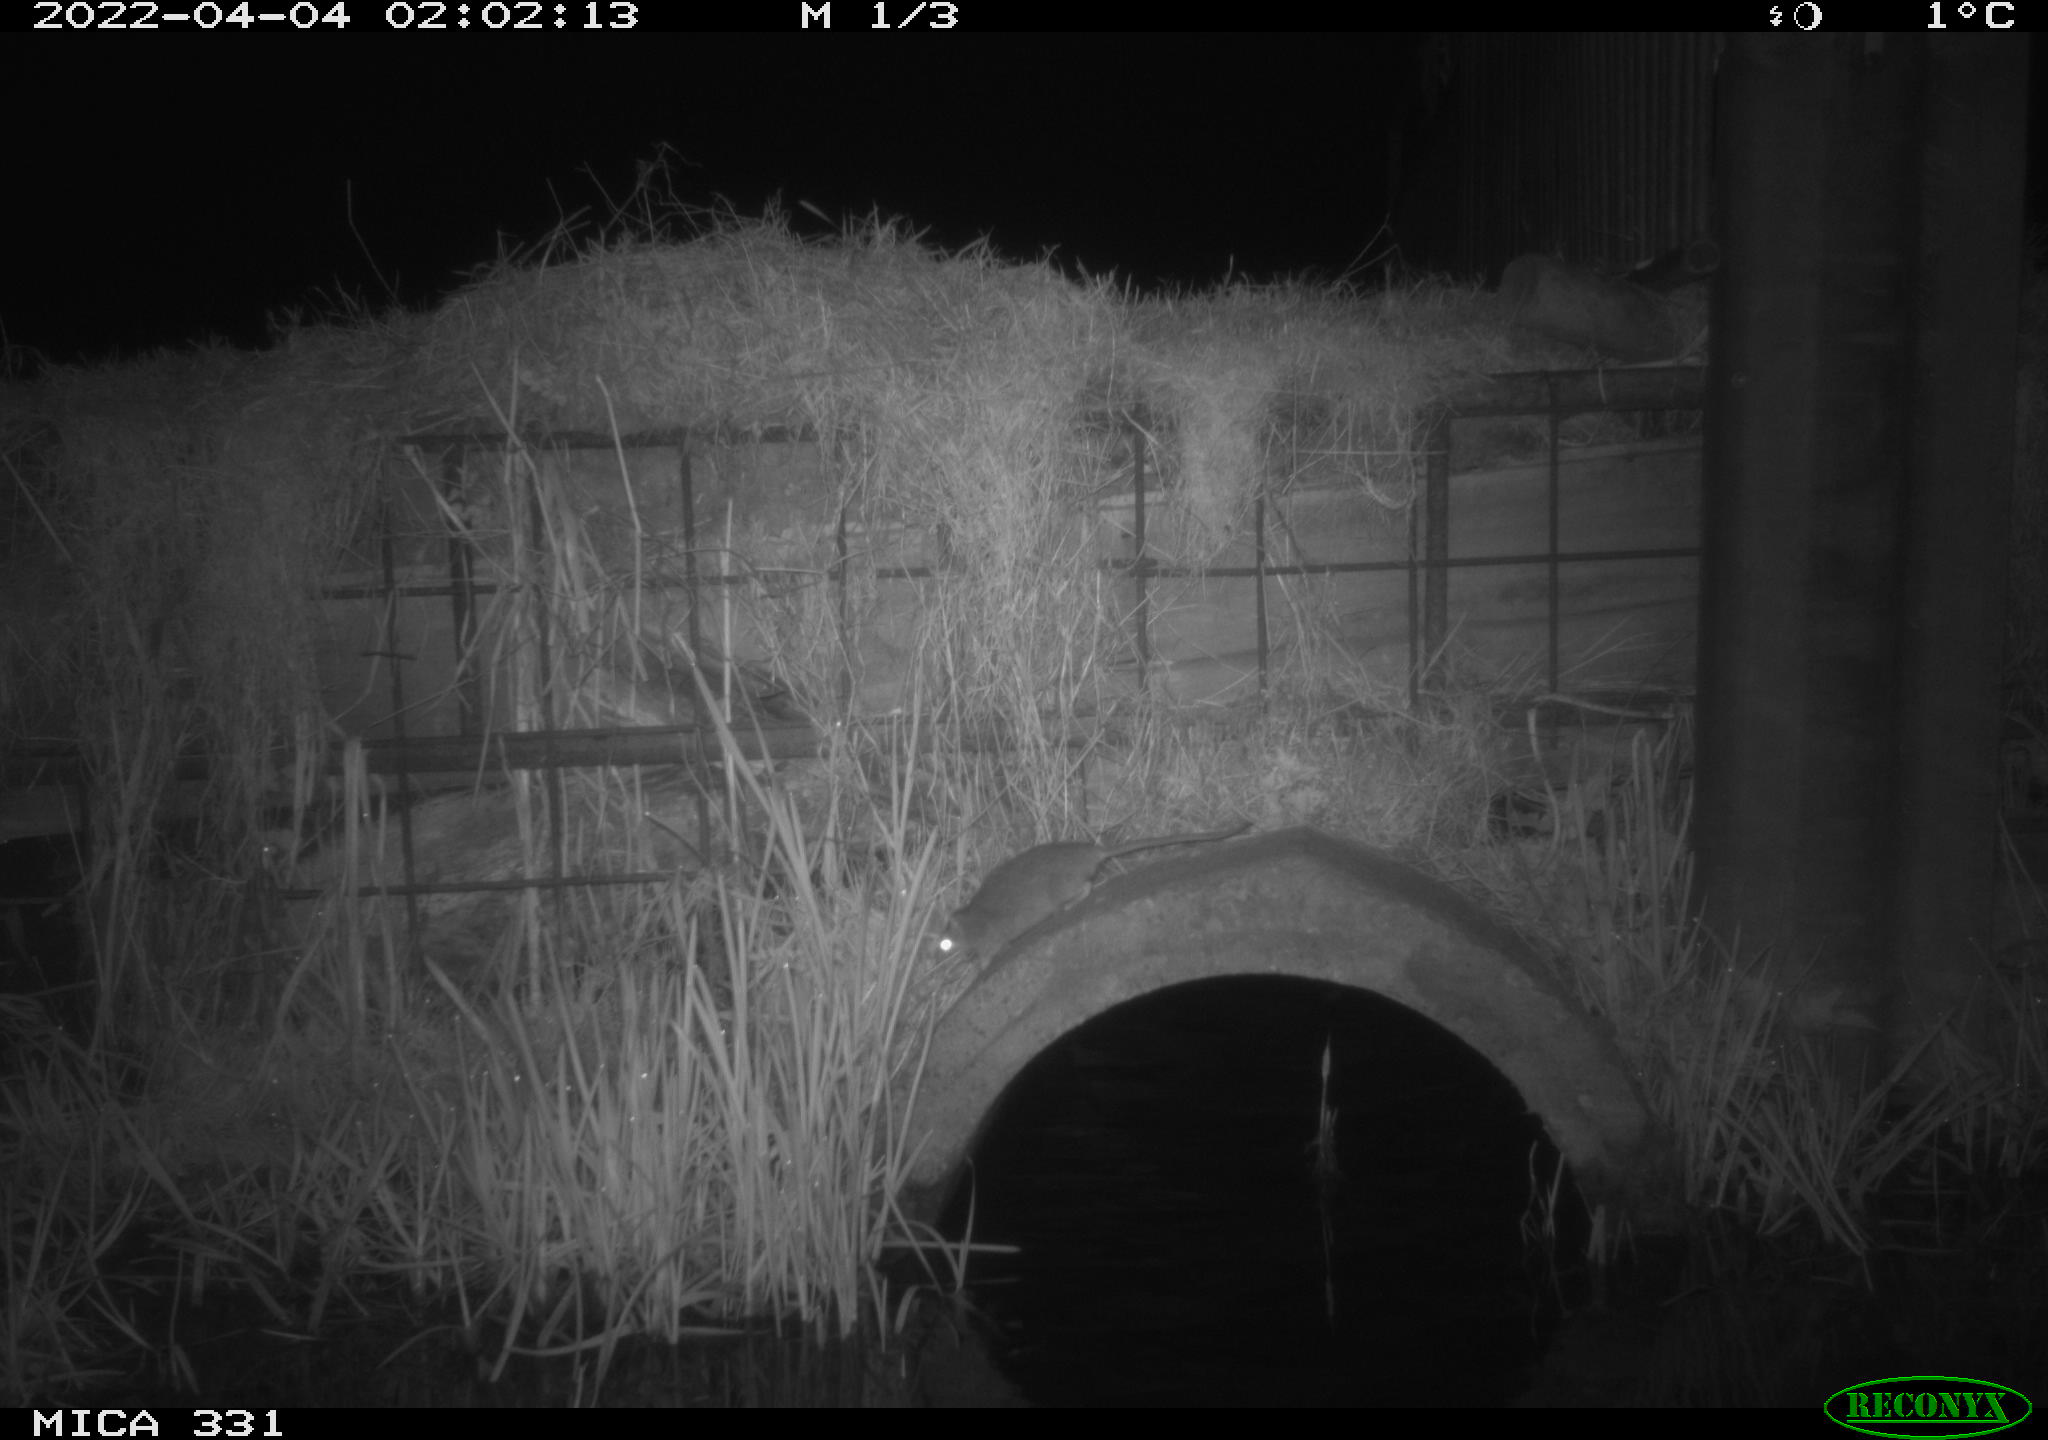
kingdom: Animalia
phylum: Chordata
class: Mammalia
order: Rodentia
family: Muridae
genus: Rattus
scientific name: Rattus norvegicus
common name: Brown rat
